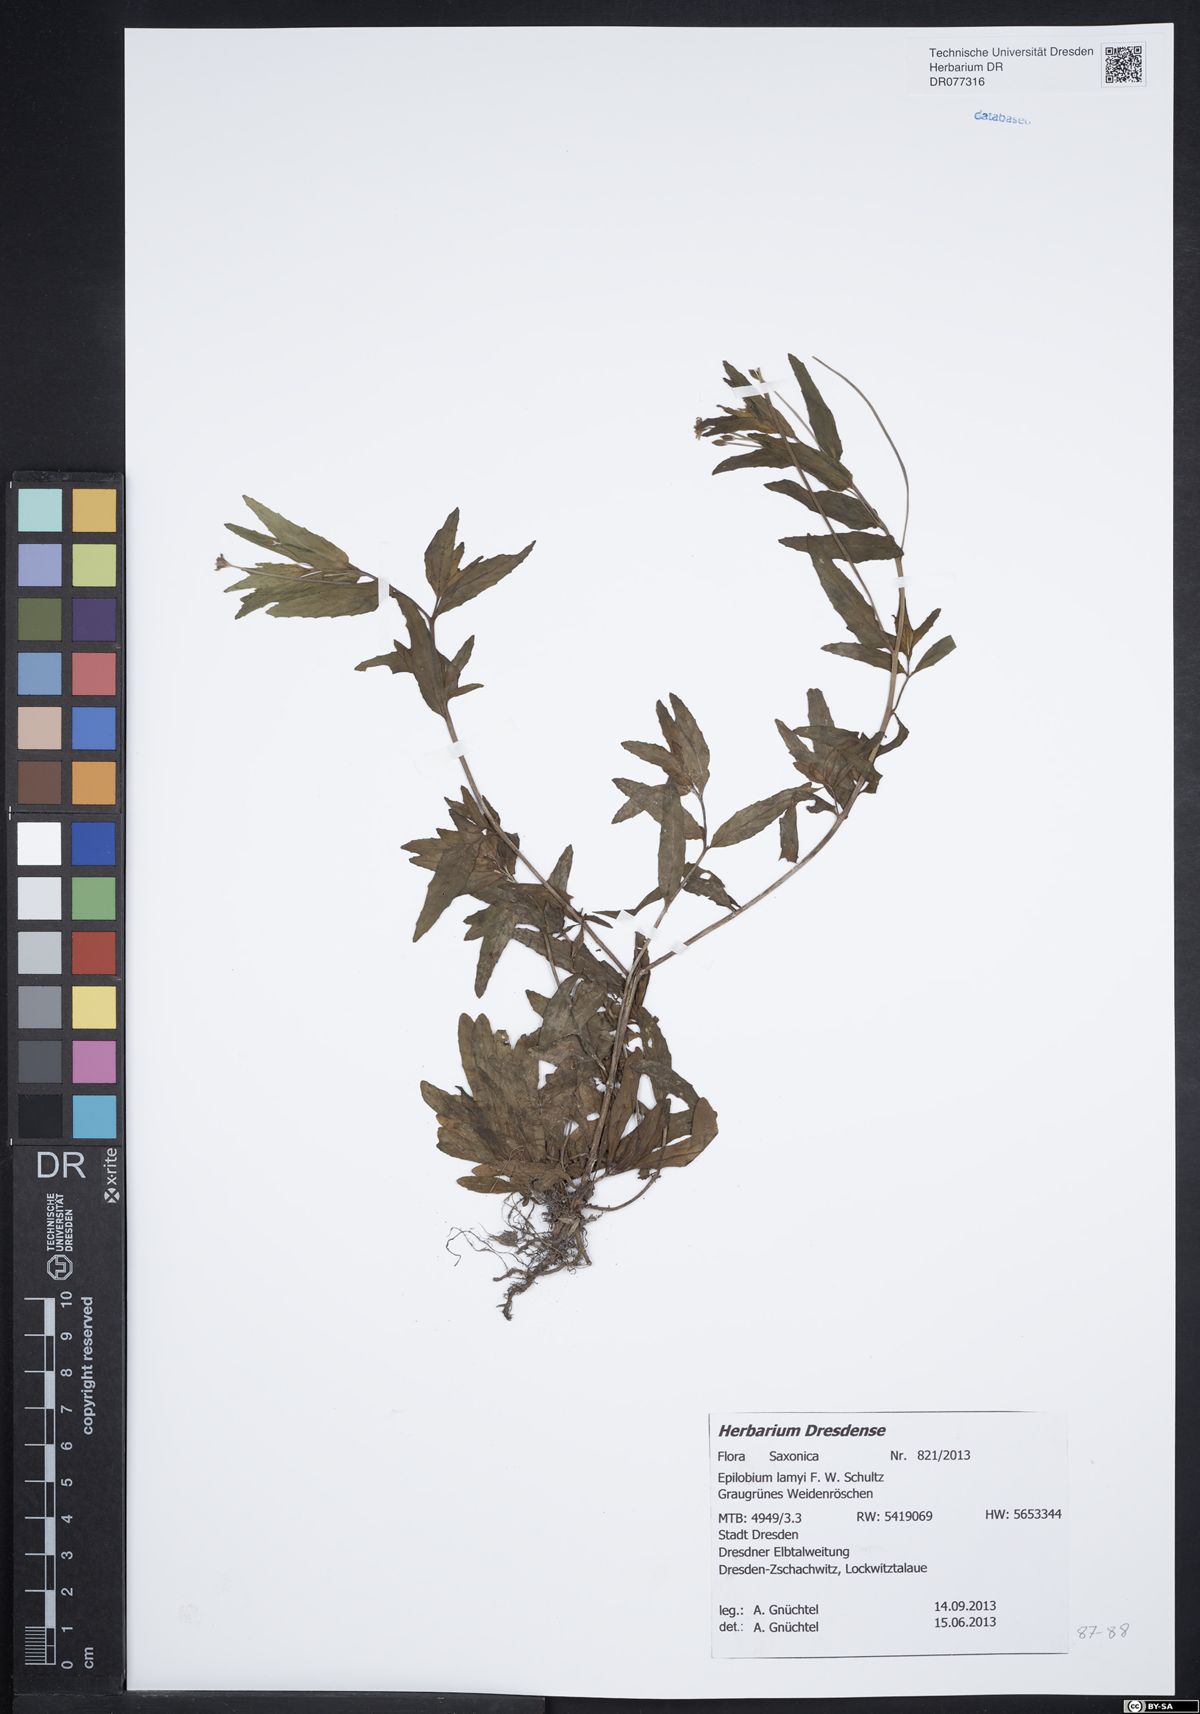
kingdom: Plantae
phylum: Tracheophyta
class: Magnoliopsida
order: Myrtales
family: Onagraceae
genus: Epilobium
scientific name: Epilobium lamyi
